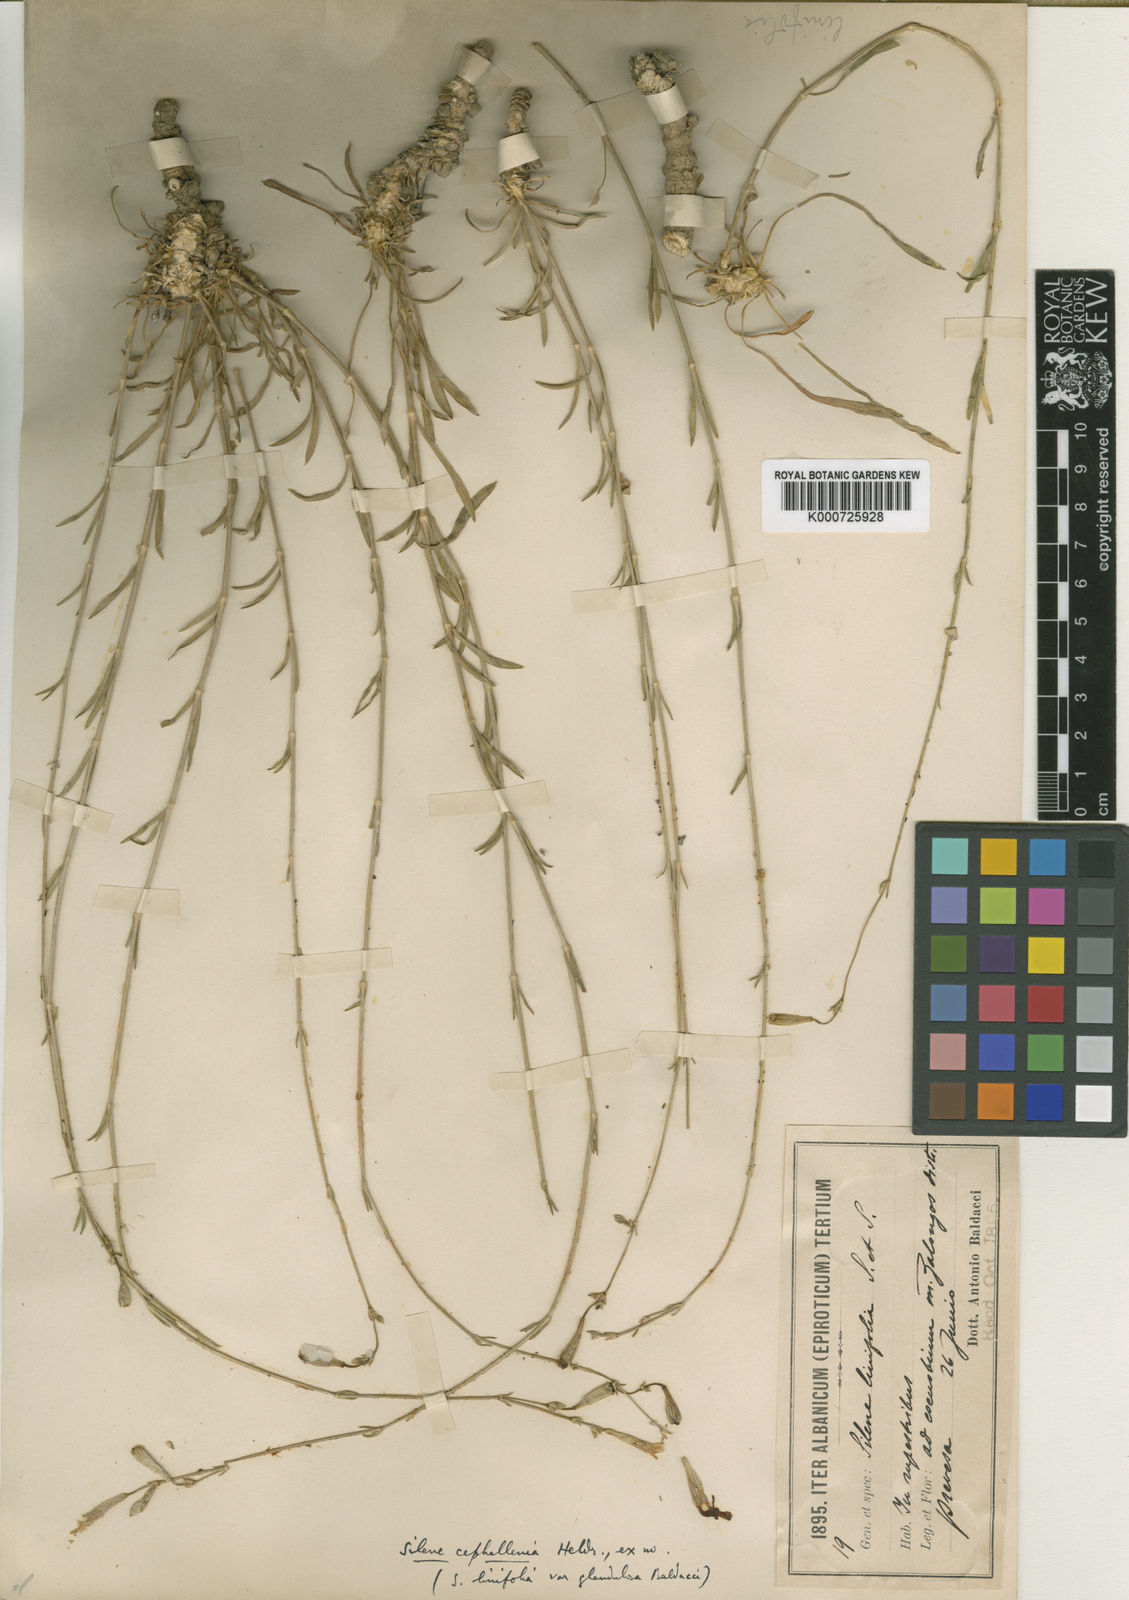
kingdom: Plantae
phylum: Tracheophyta
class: Magnoliopsida
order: Caryophyllales
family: Caryophyllaceae
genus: Silene
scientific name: Silene cephallenia
